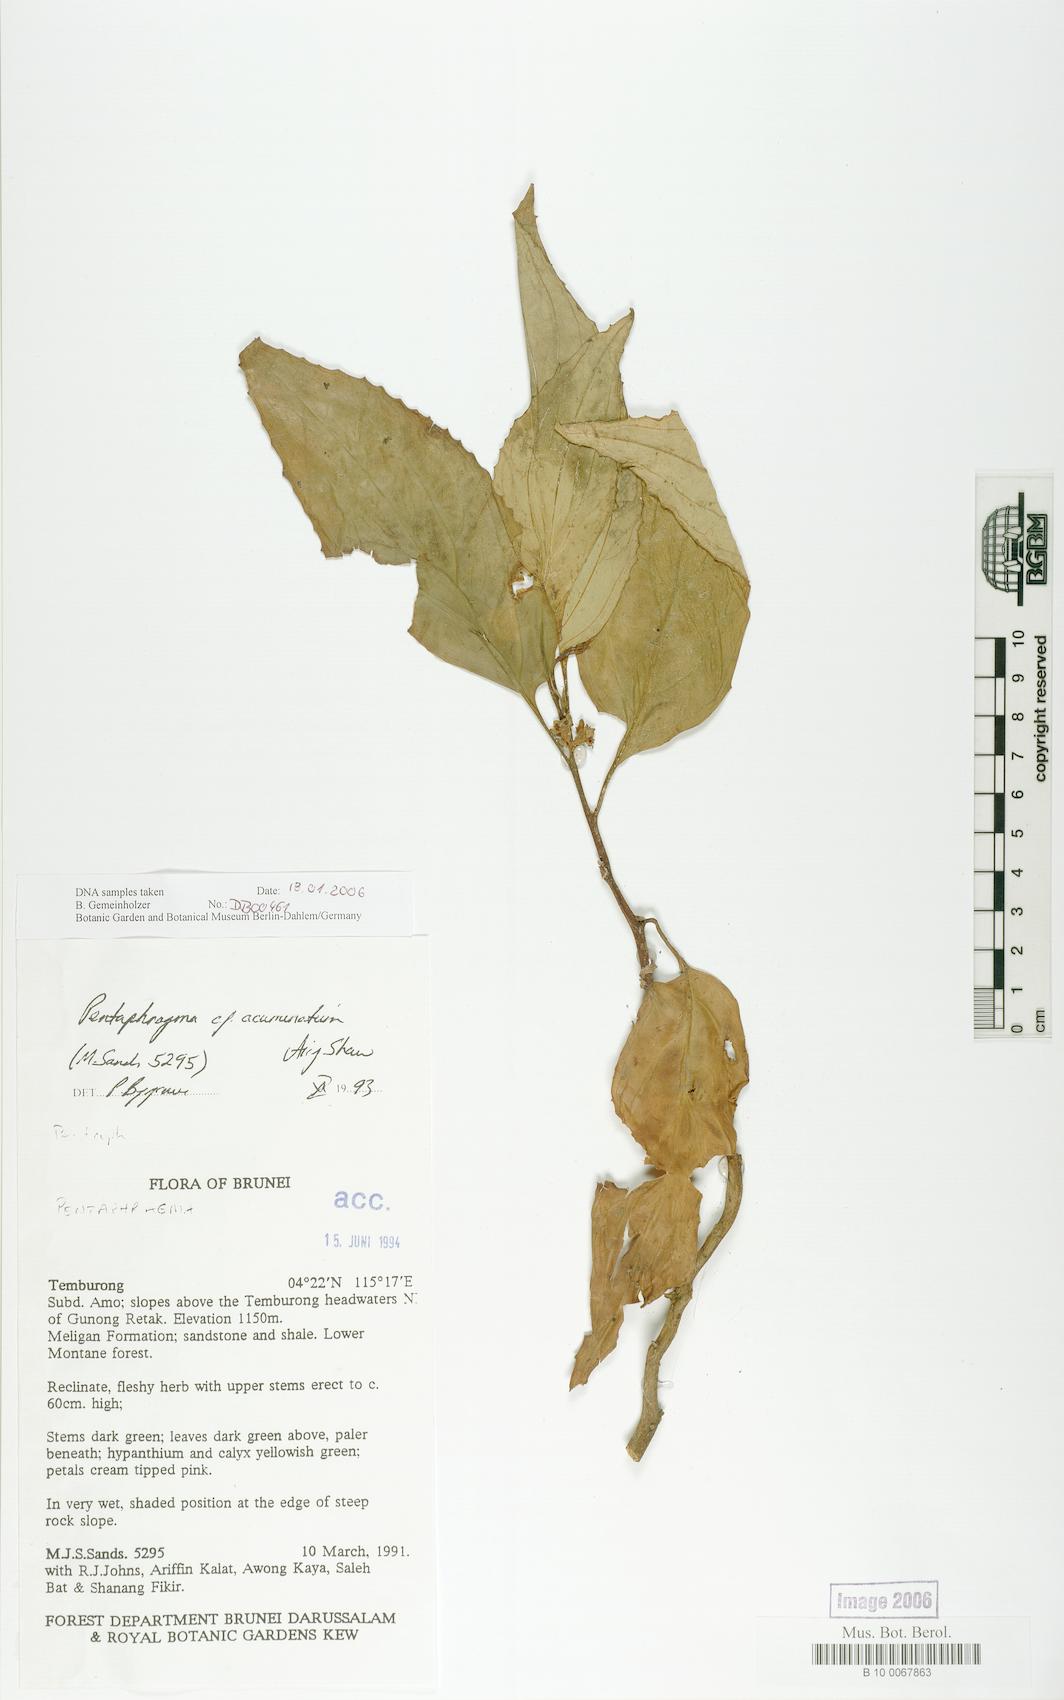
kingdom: Plantae
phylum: Tracheophyta
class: Magnoliopsida
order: Asterales
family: Pentaphragmataceae
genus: Pentaphragma
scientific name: Pentaphragma acuminatum
